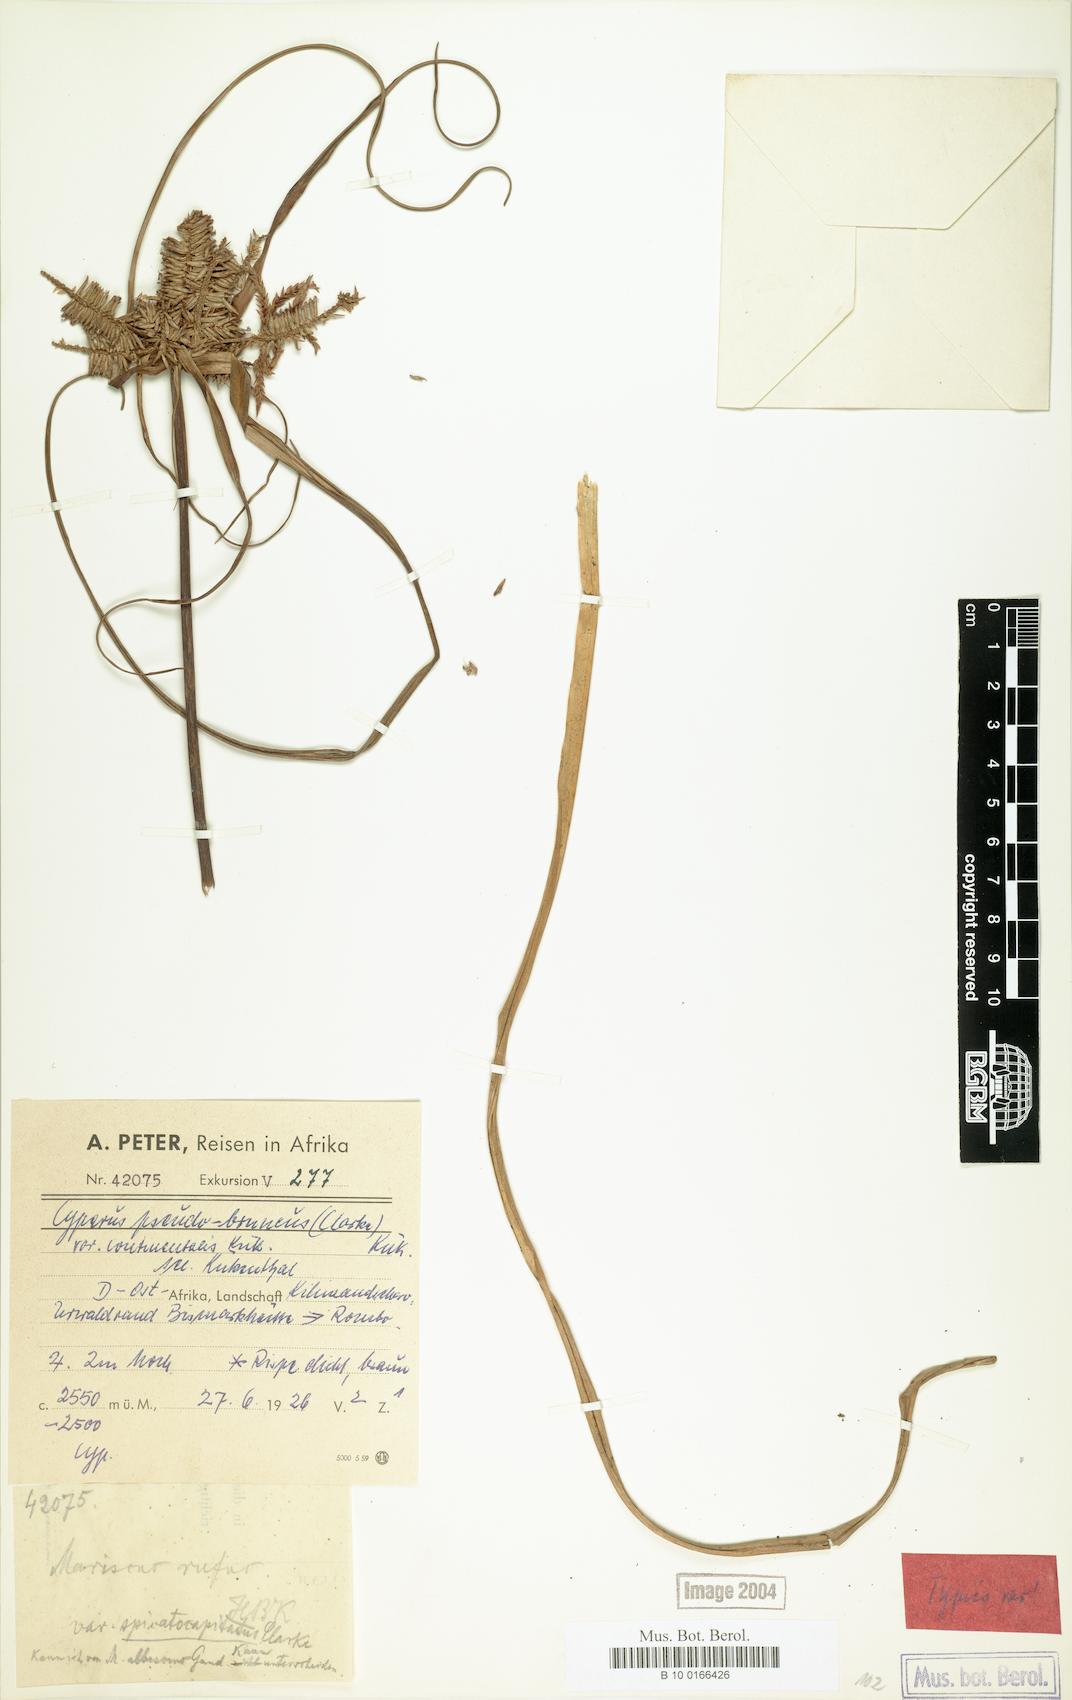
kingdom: Plantae
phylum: Tracheophyta
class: Liliopsida
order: Poales
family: Cyperaceae
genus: Cyperus
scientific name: Cyperus pseudobrunneus
